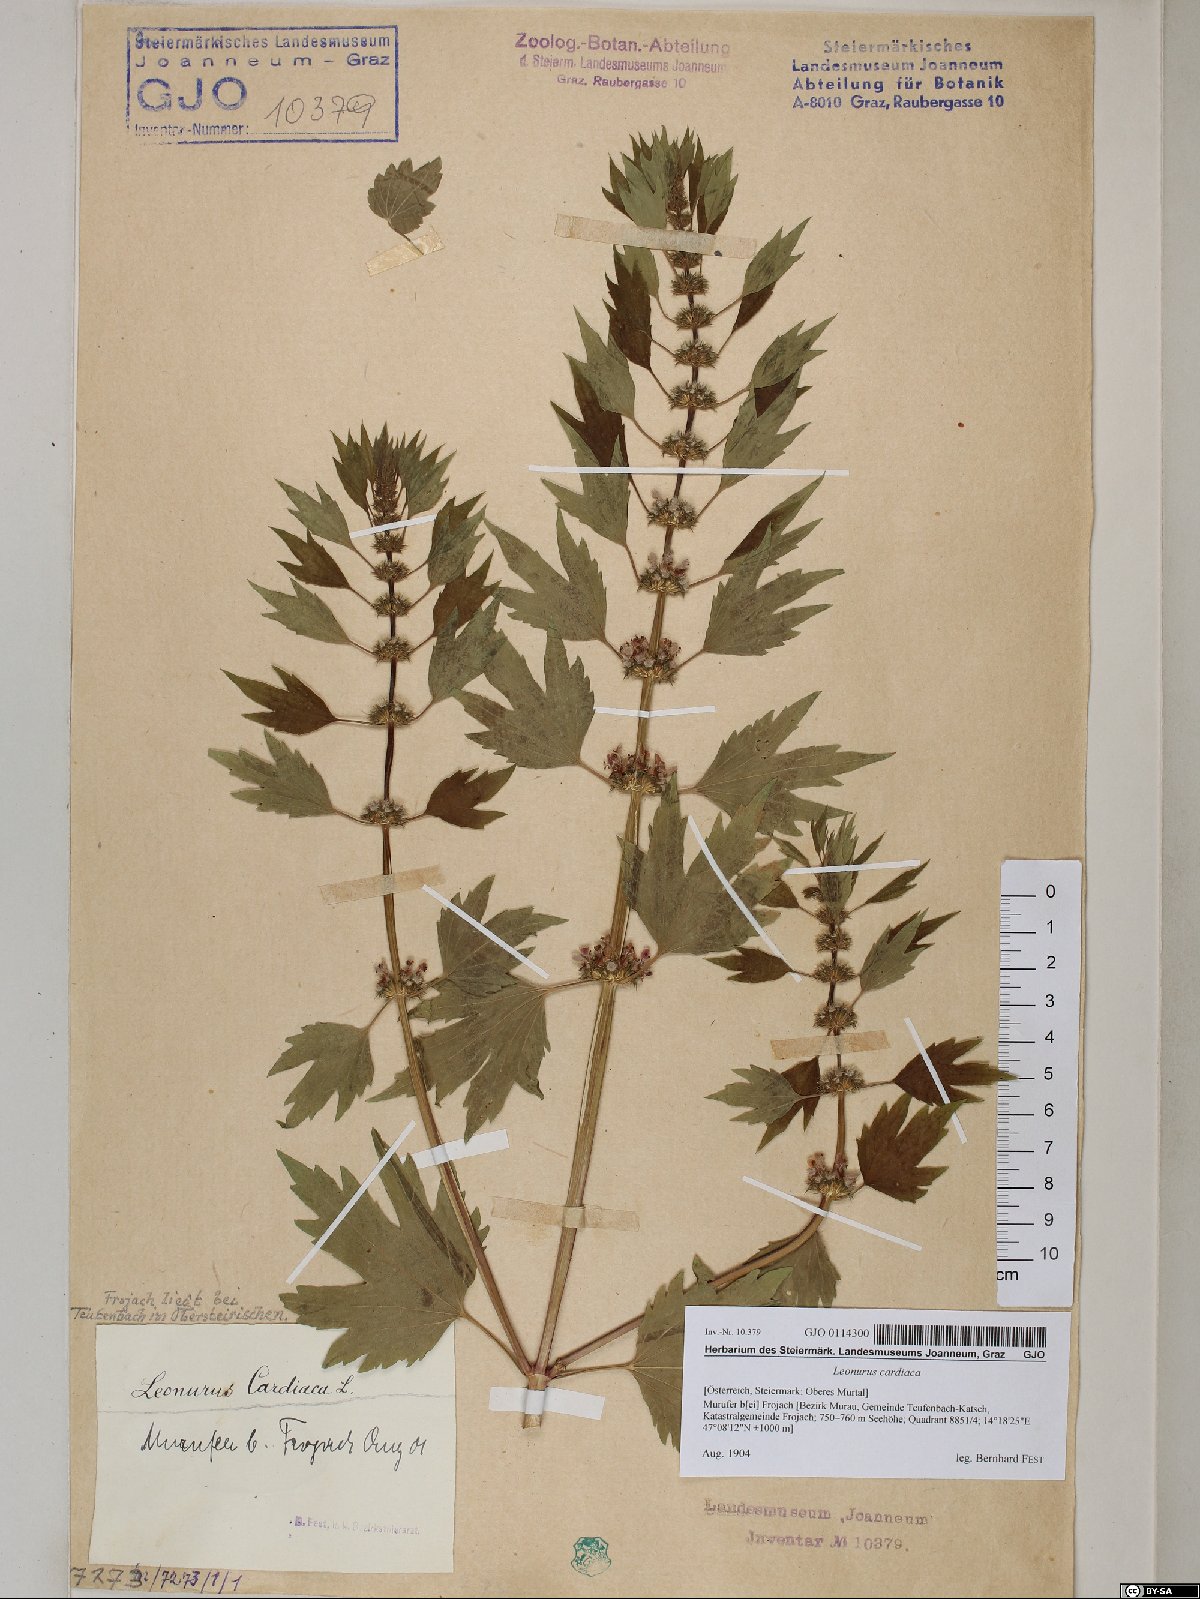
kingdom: Plantae
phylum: Tracheophyta
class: Magnoliopsida
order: Lamiales
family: Lamiaceae
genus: Leonurus
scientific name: Leonurus cardiaca
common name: Motherwort
